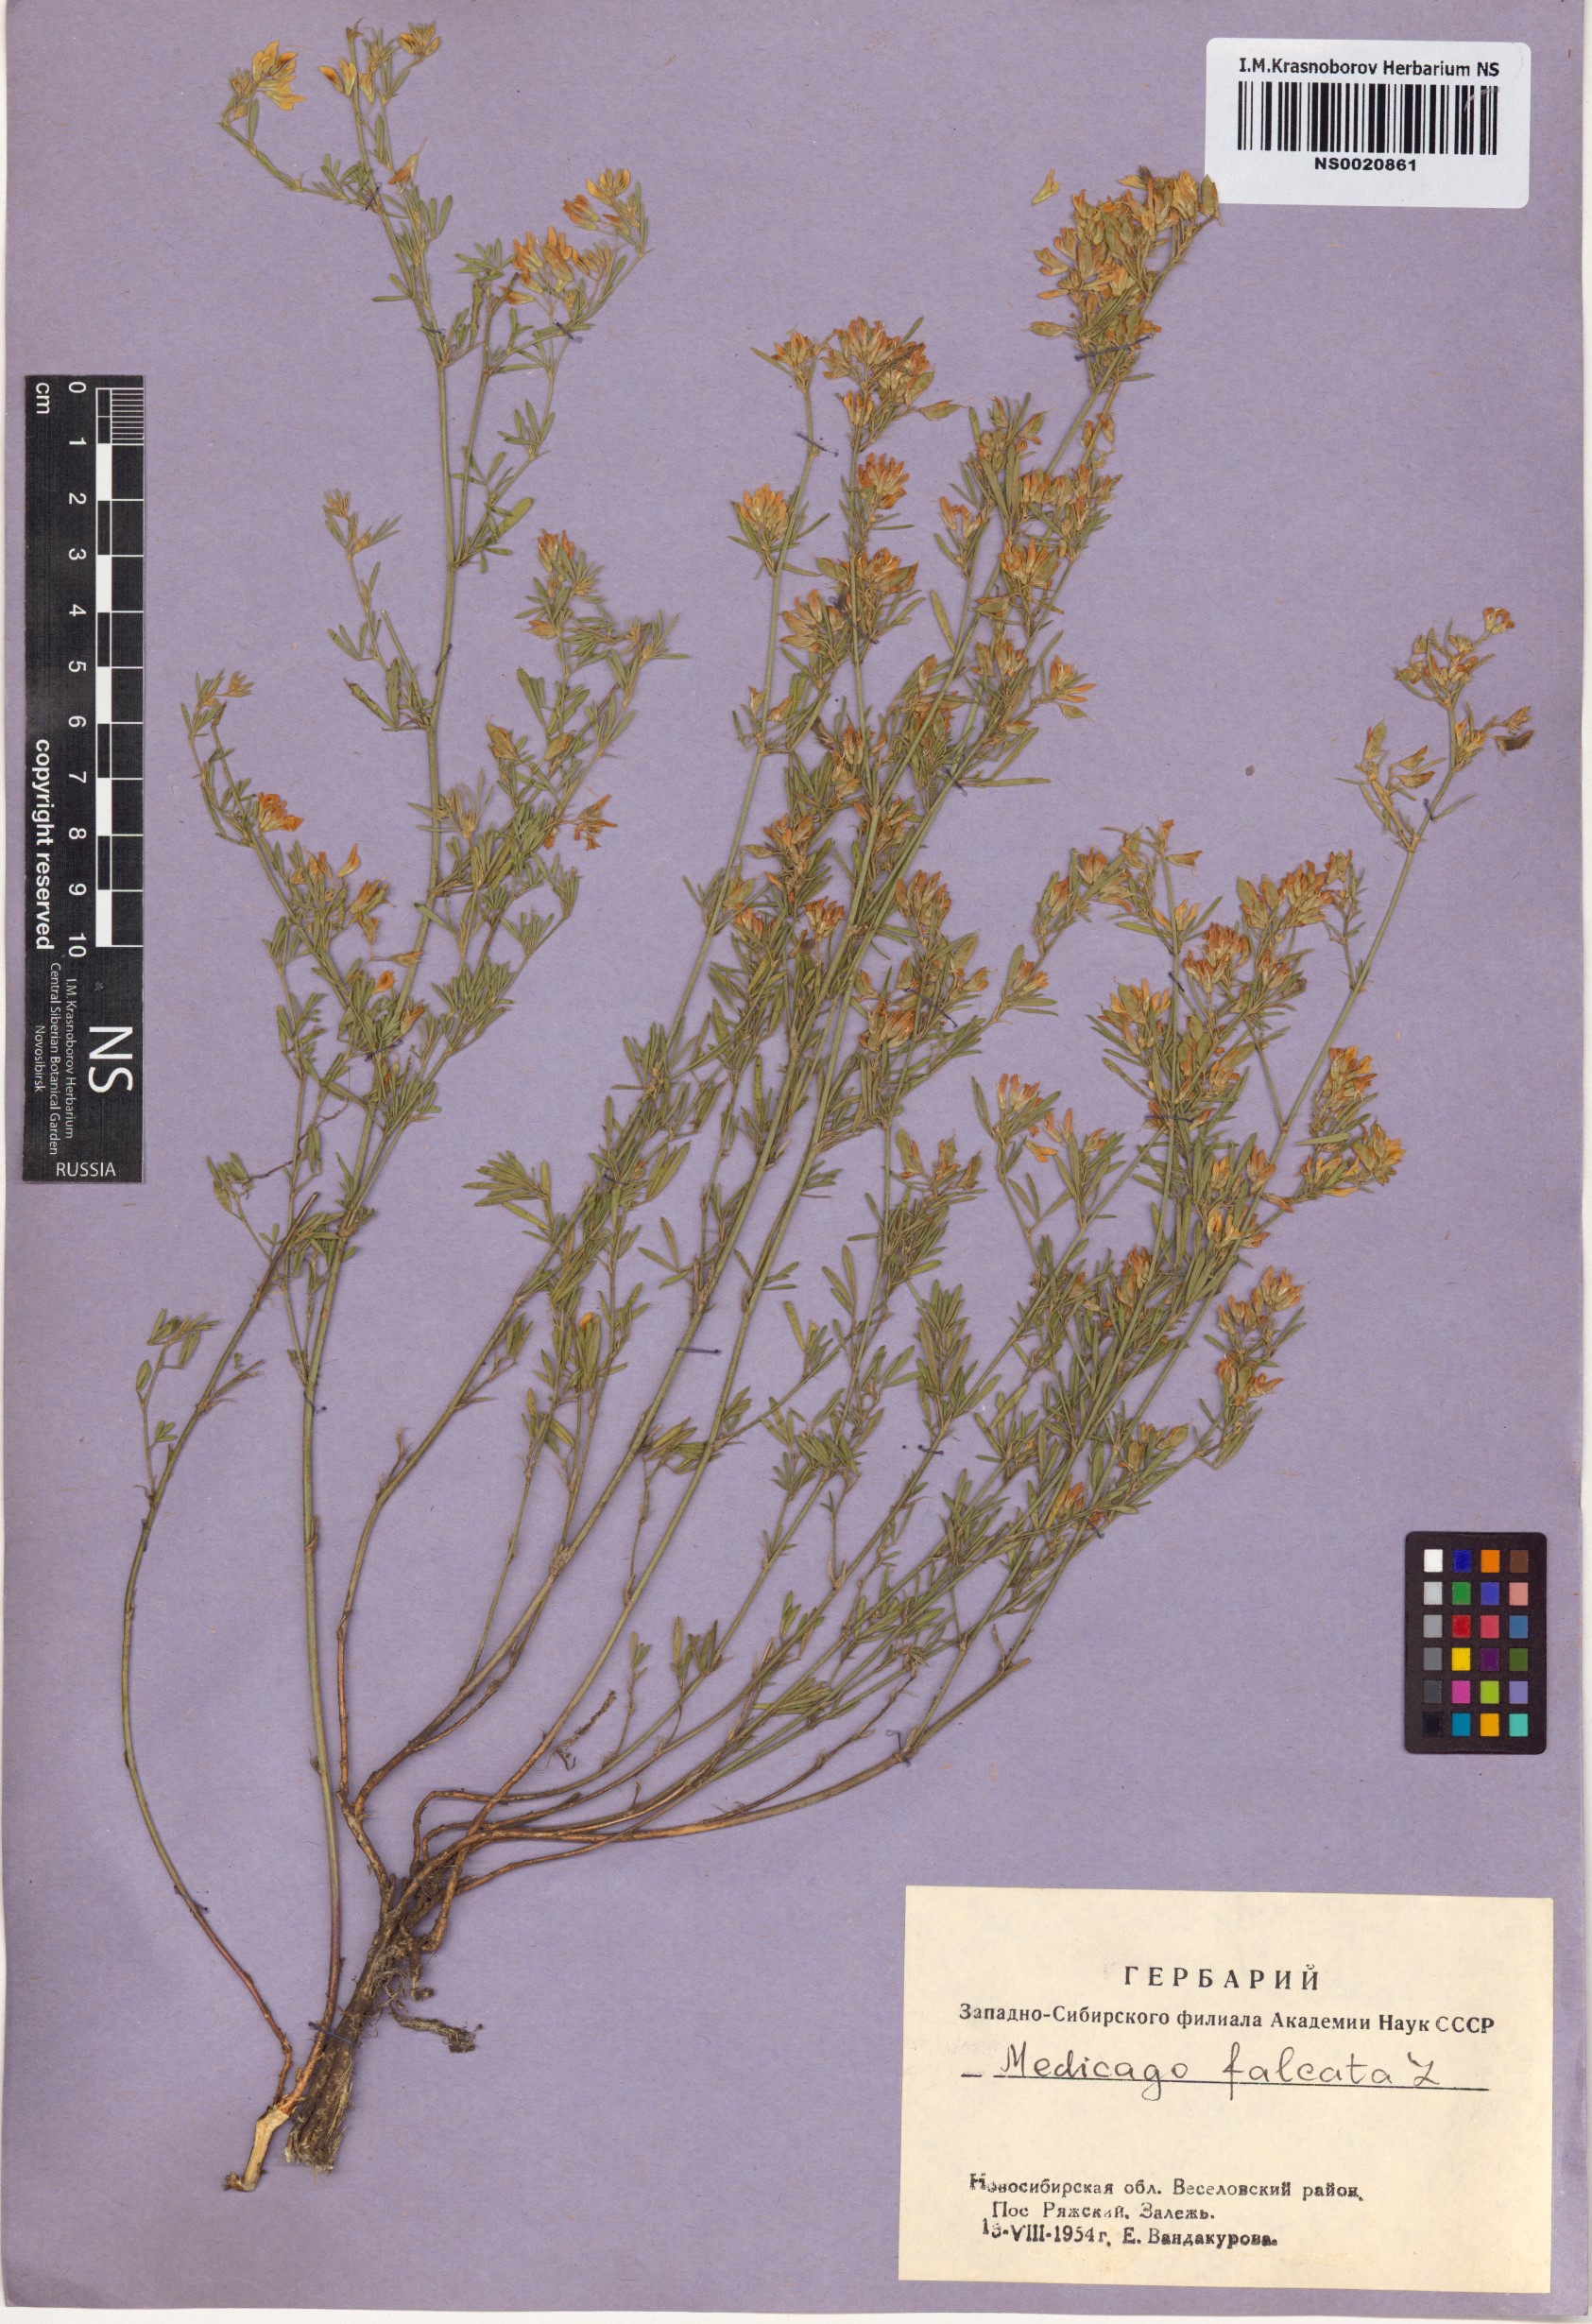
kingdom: Plantae
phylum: Tracheophyta
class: Magnoliopsida
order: Fabales
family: Fabaceae
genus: Medicago
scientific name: Medicago falcata
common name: Sickle medick
